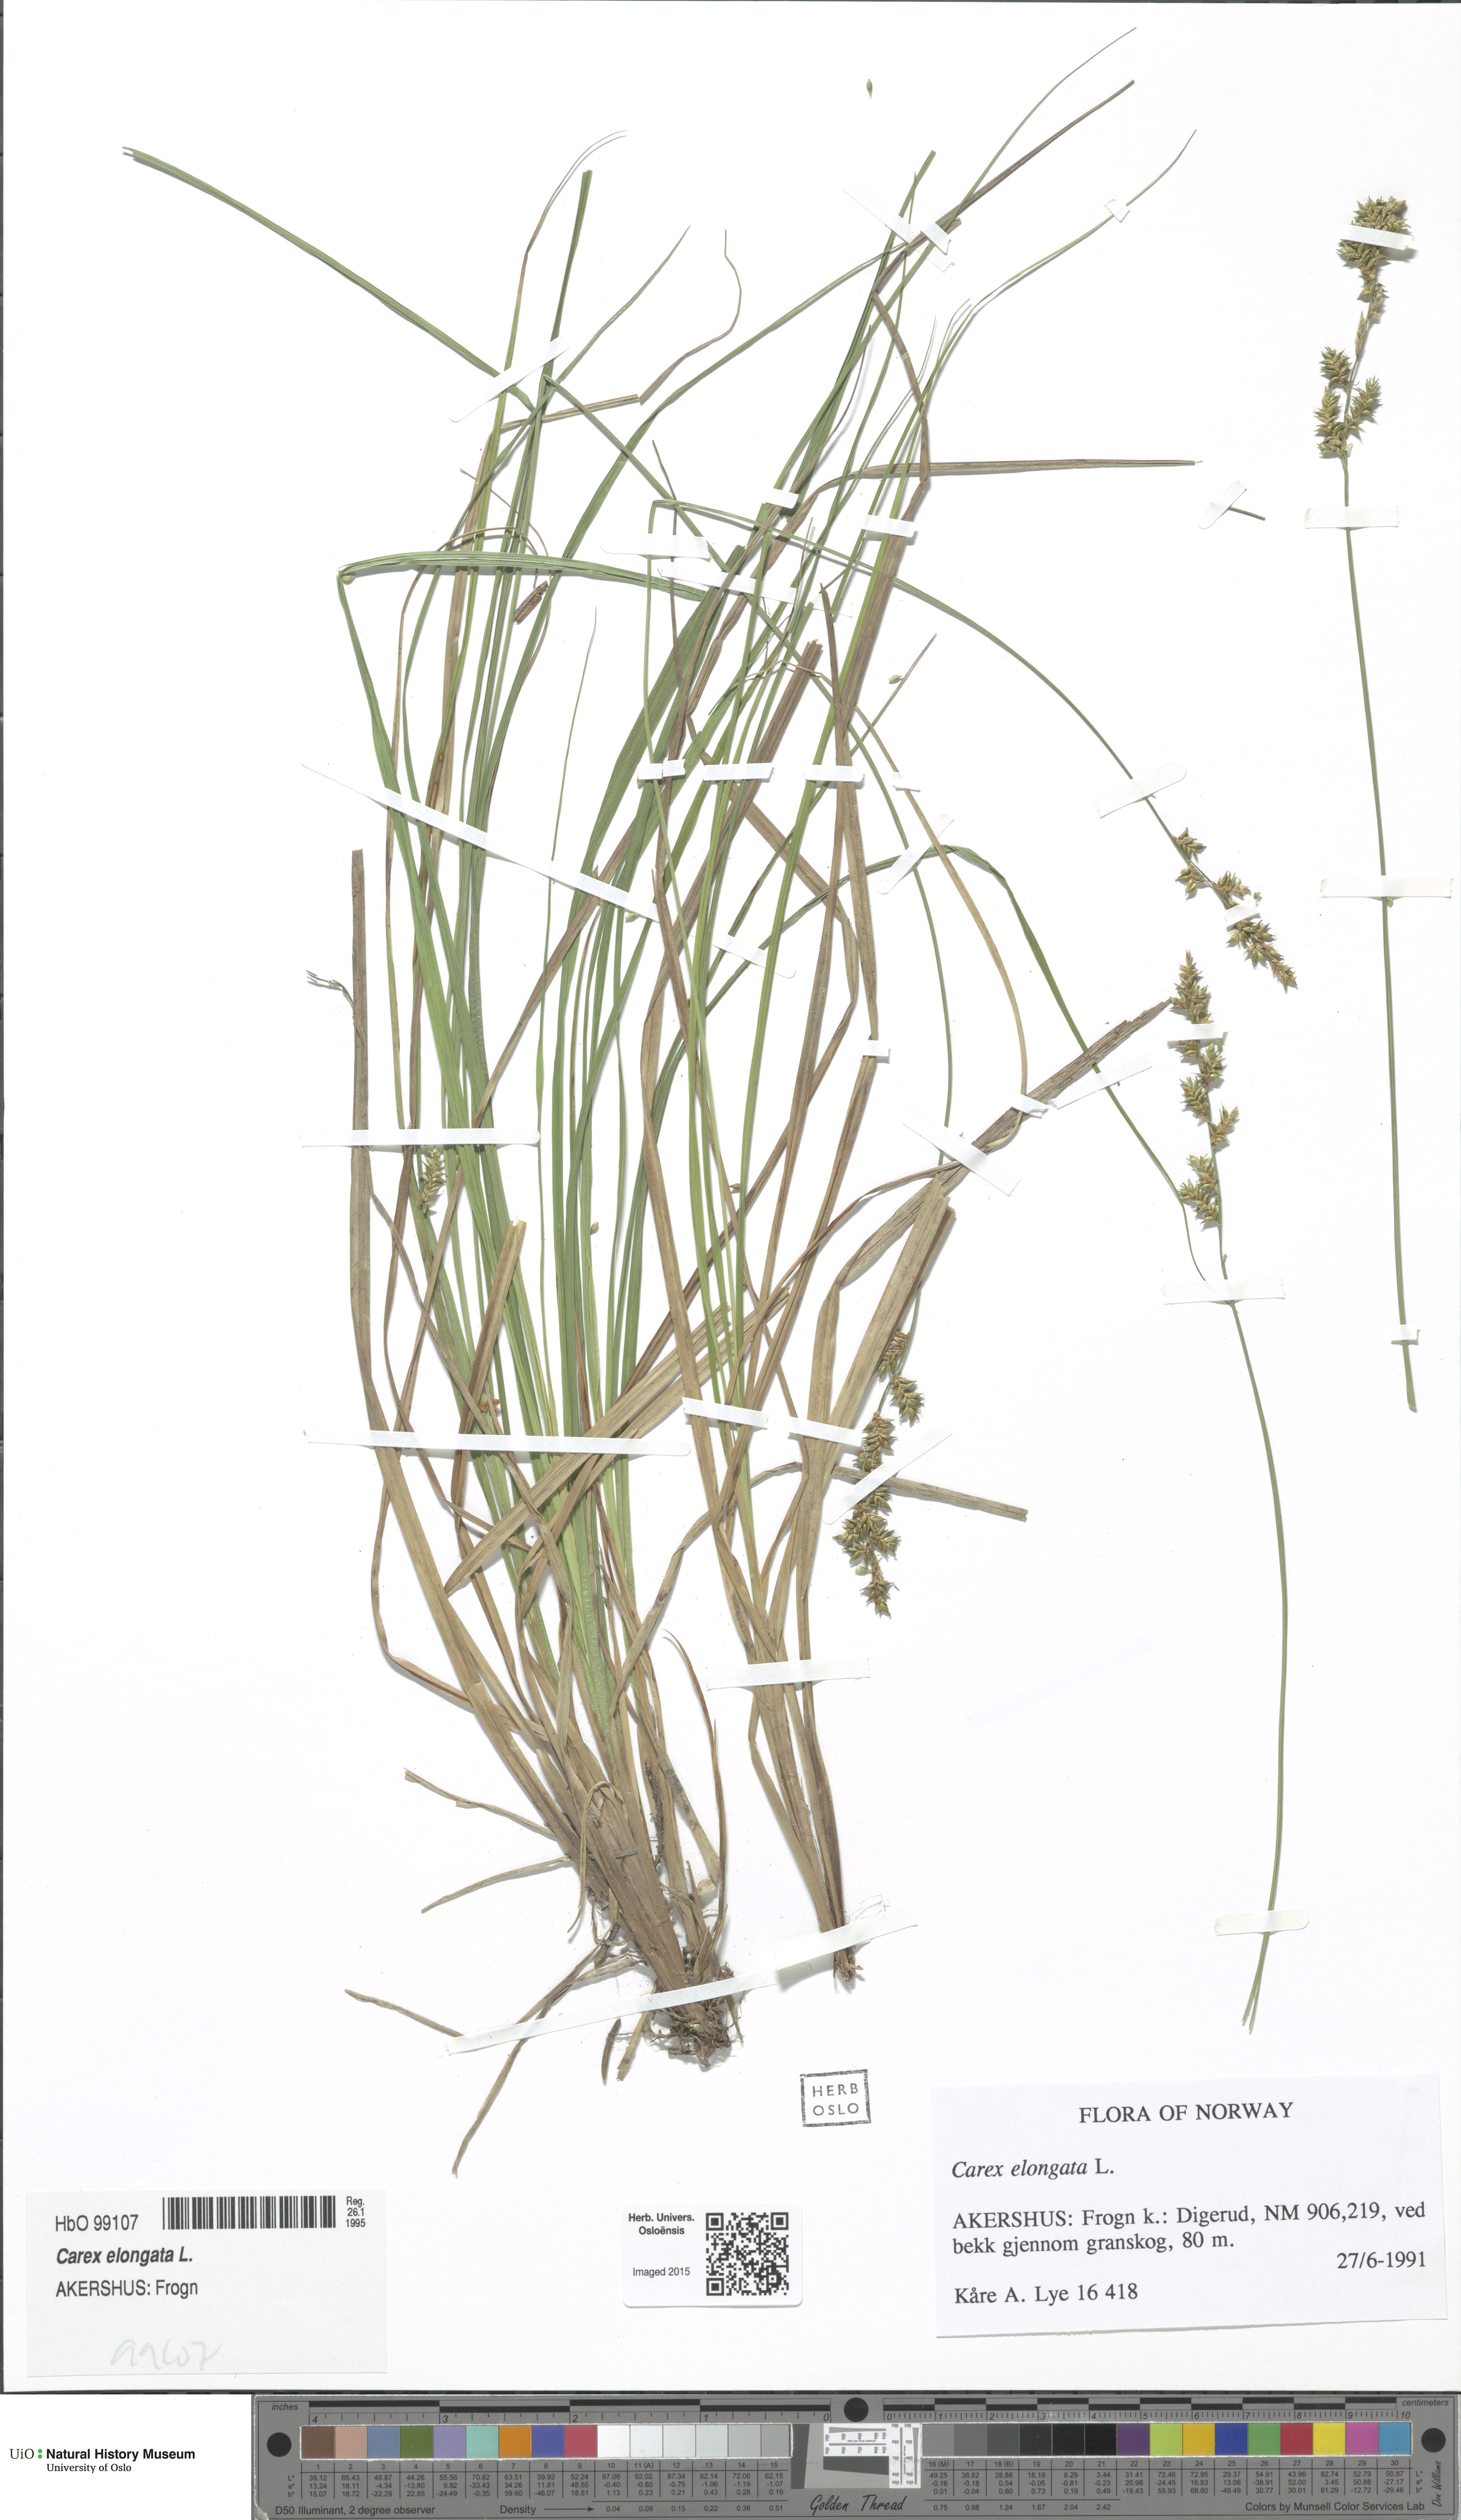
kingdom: Plantae
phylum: Tracheophyta
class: Liliopsida
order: Poales
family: Cyperaceae
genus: Carex
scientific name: Carex elongata
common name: Elongated sedge
